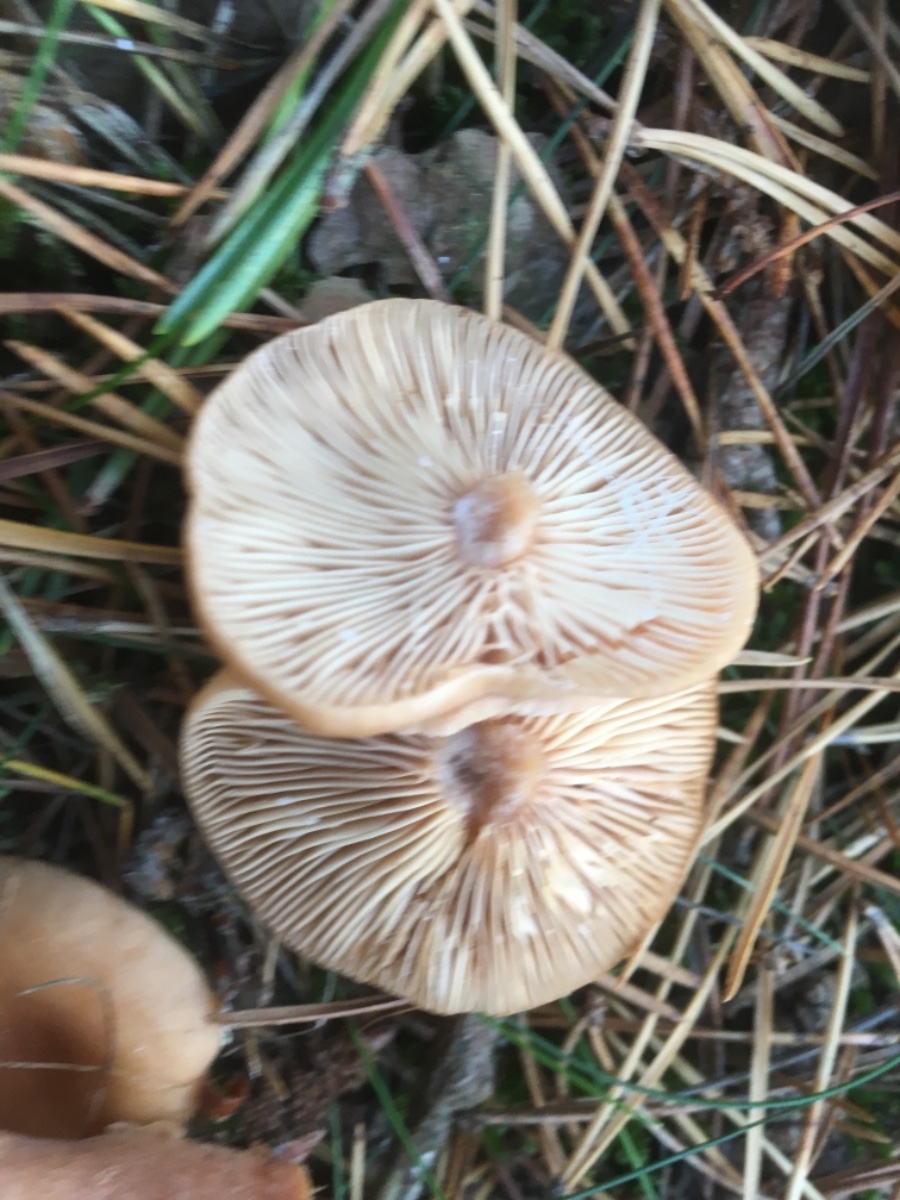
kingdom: Fungi
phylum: Basidiomycota
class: Agaricomycetes
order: Russulales
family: Russulaceae
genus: Lactarius
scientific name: Lactarius tabidus
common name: rynket mælkehat
